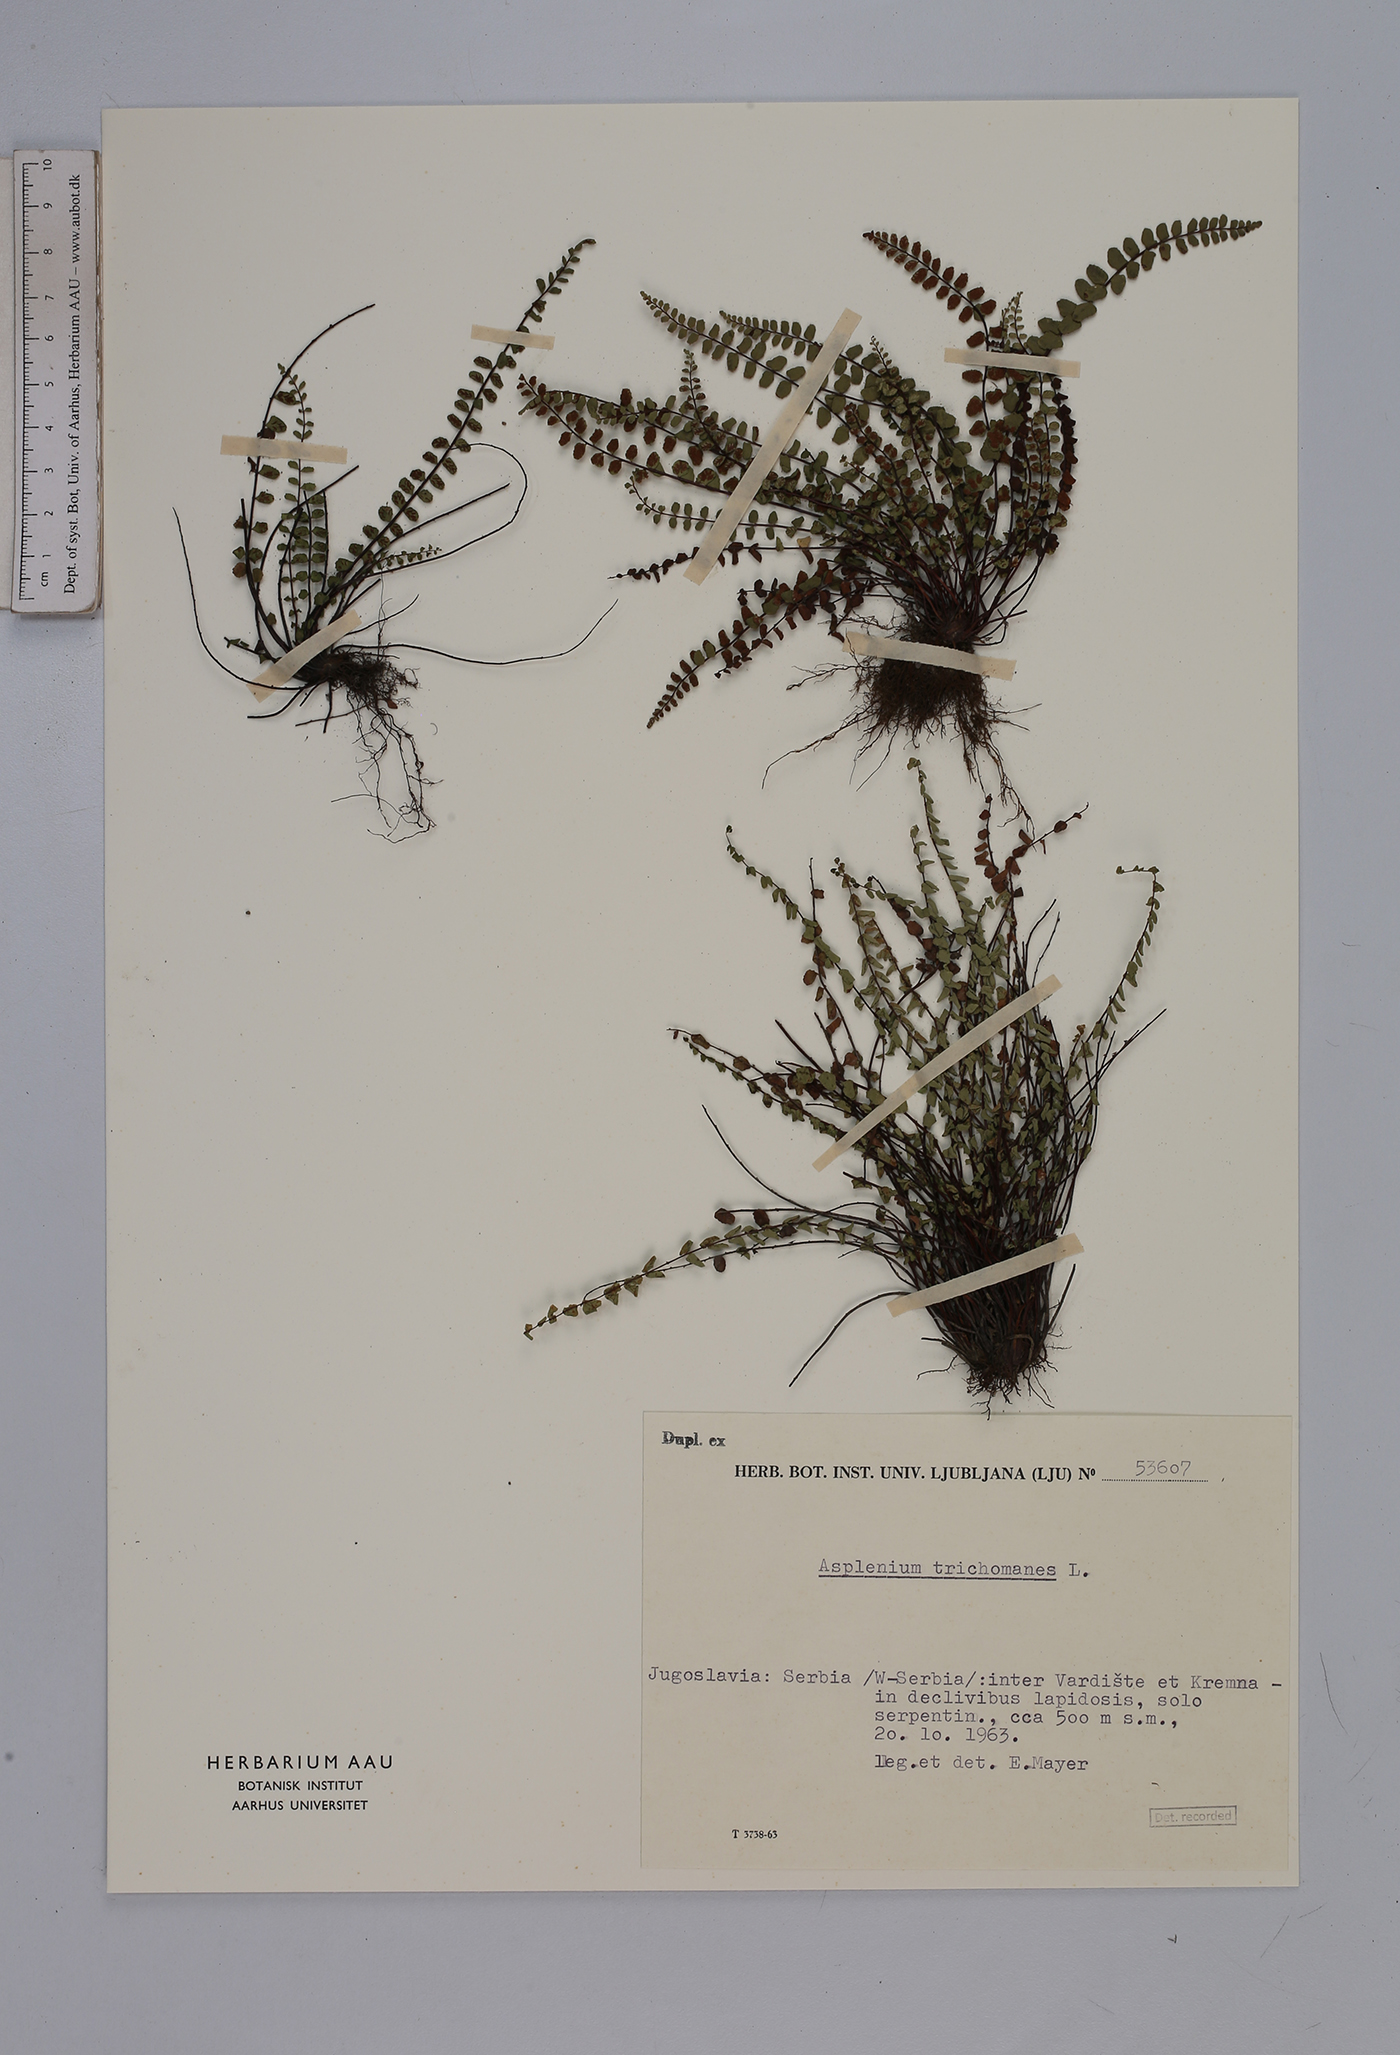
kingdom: Plantae
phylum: Tracheophyta
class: Polypodiopsida
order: Polypodiales
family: Aspleniaceae
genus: Asplenium
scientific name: Asplenium trichomanes
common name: Maidenhair spleenwort
